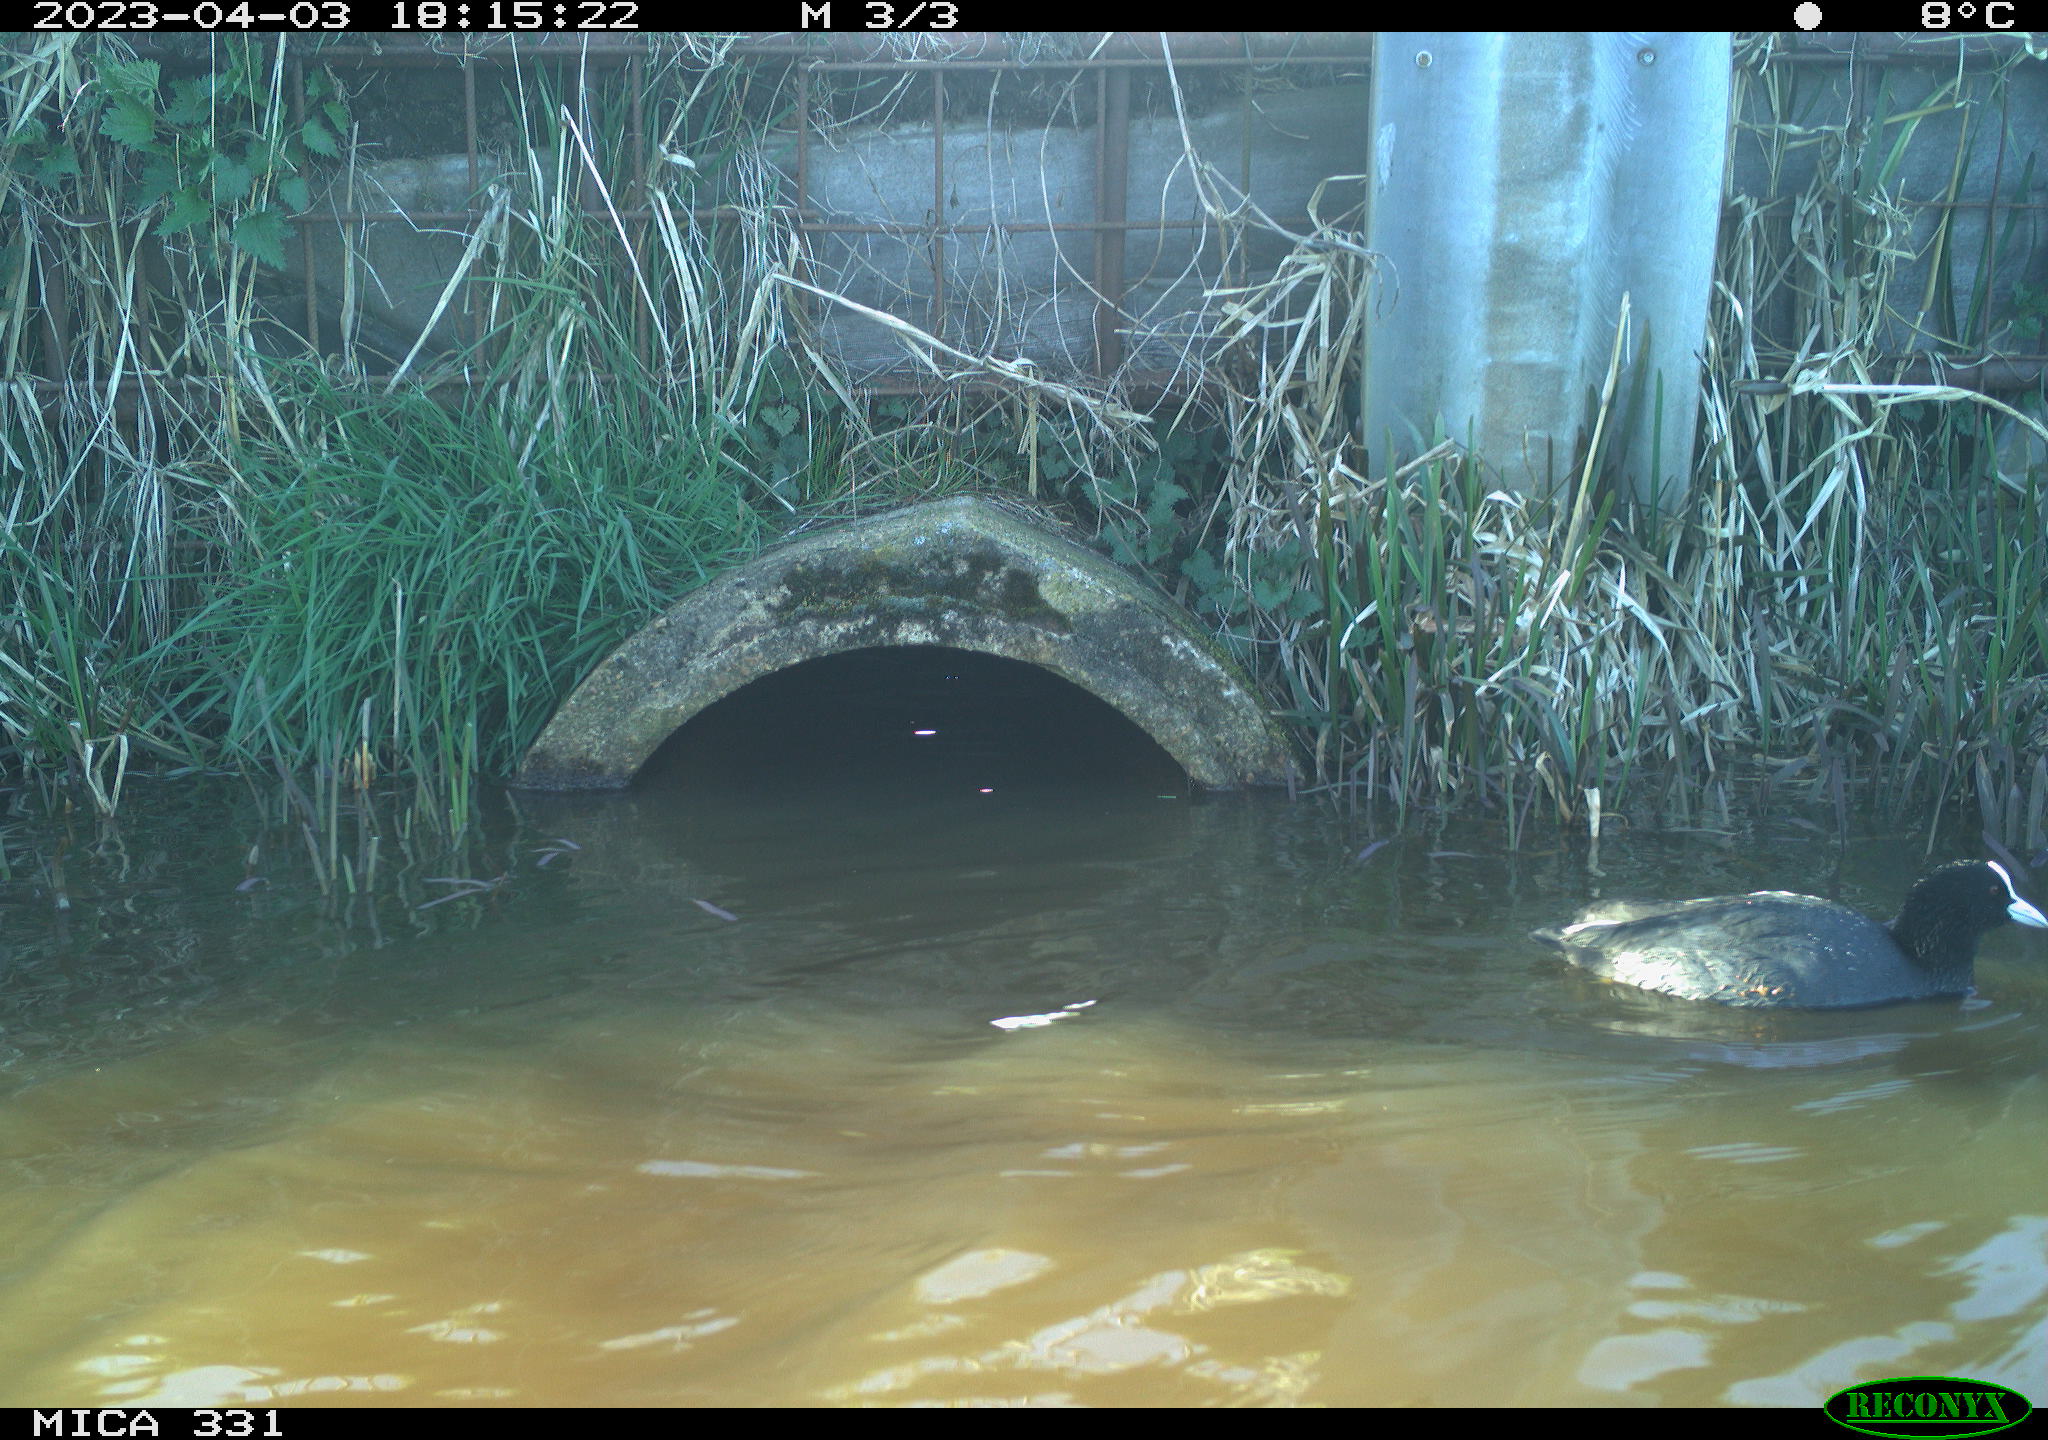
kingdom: Animalia
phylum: Chordata
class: Aves
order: Gruiformes
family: Rallidae
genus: Fulica
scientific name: Fulica atra
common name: Eurasian coot
